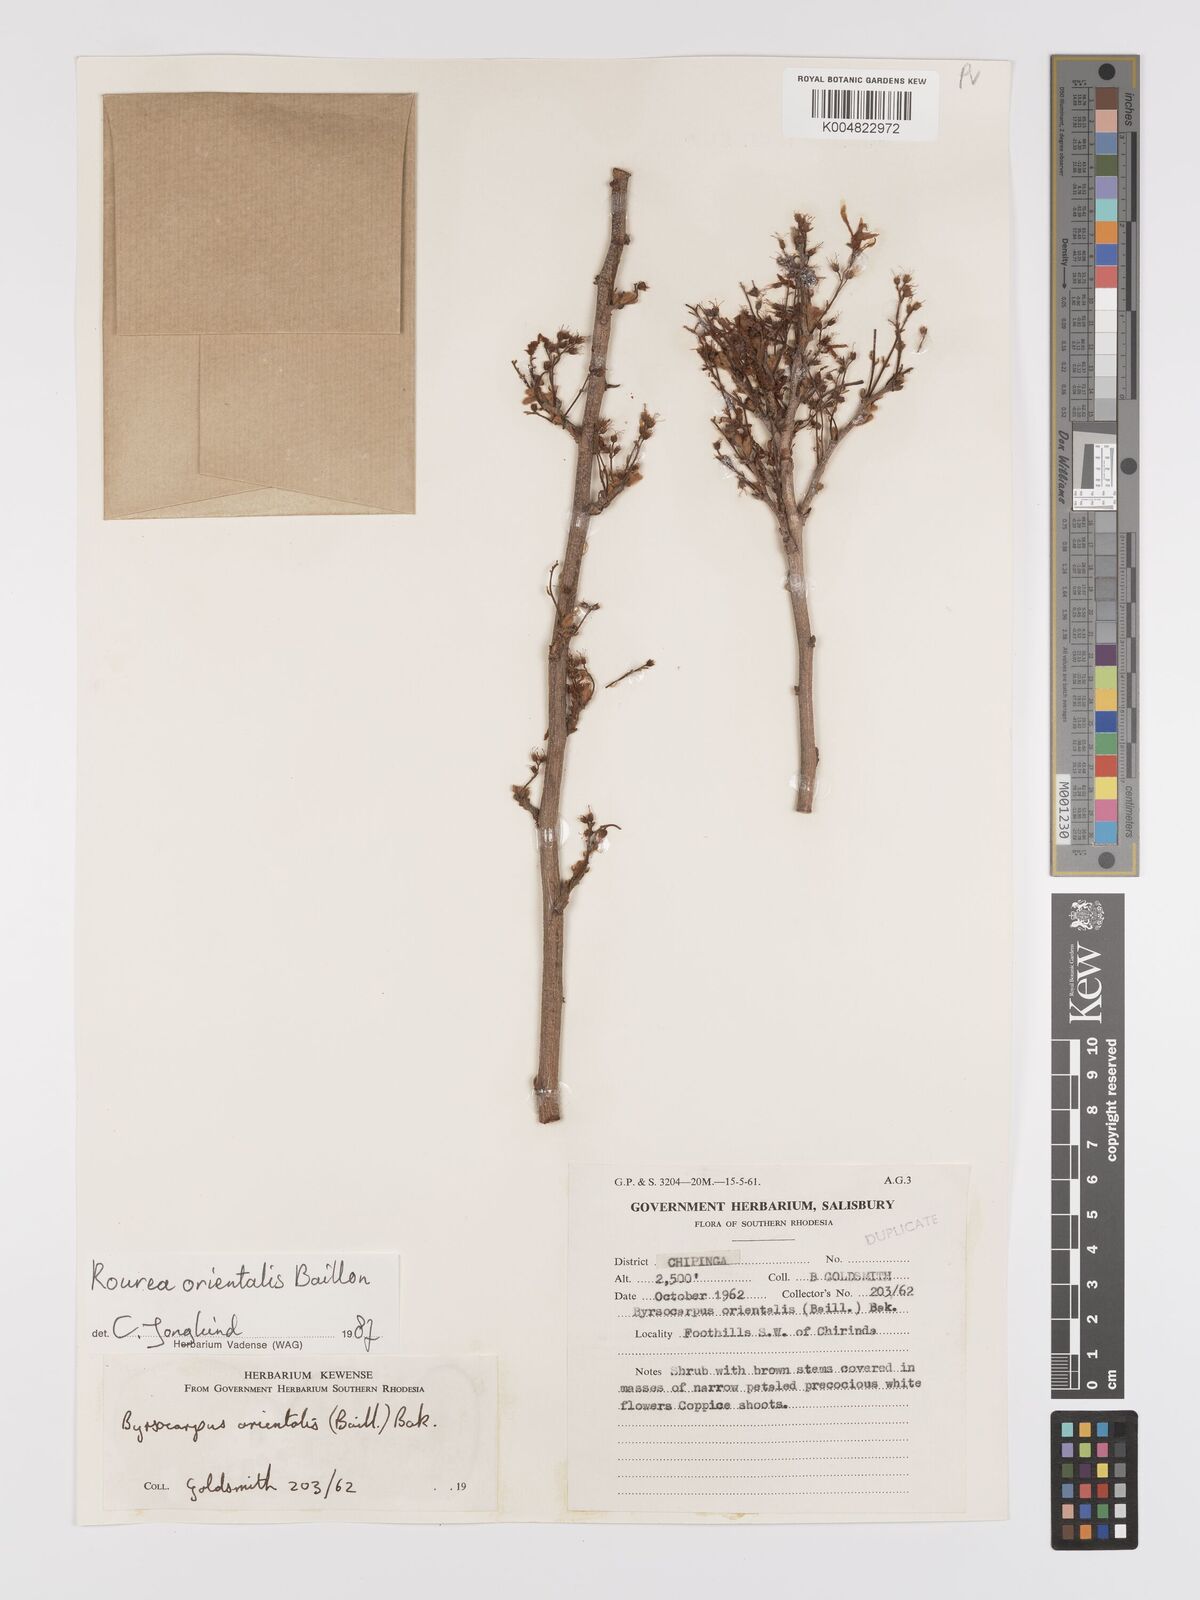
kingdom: Plantae
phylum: Tracheophyta
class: Magnoliopsida
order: Oxalidales
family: Connaraceae
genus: Rourea
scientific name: Rourea orientalis
